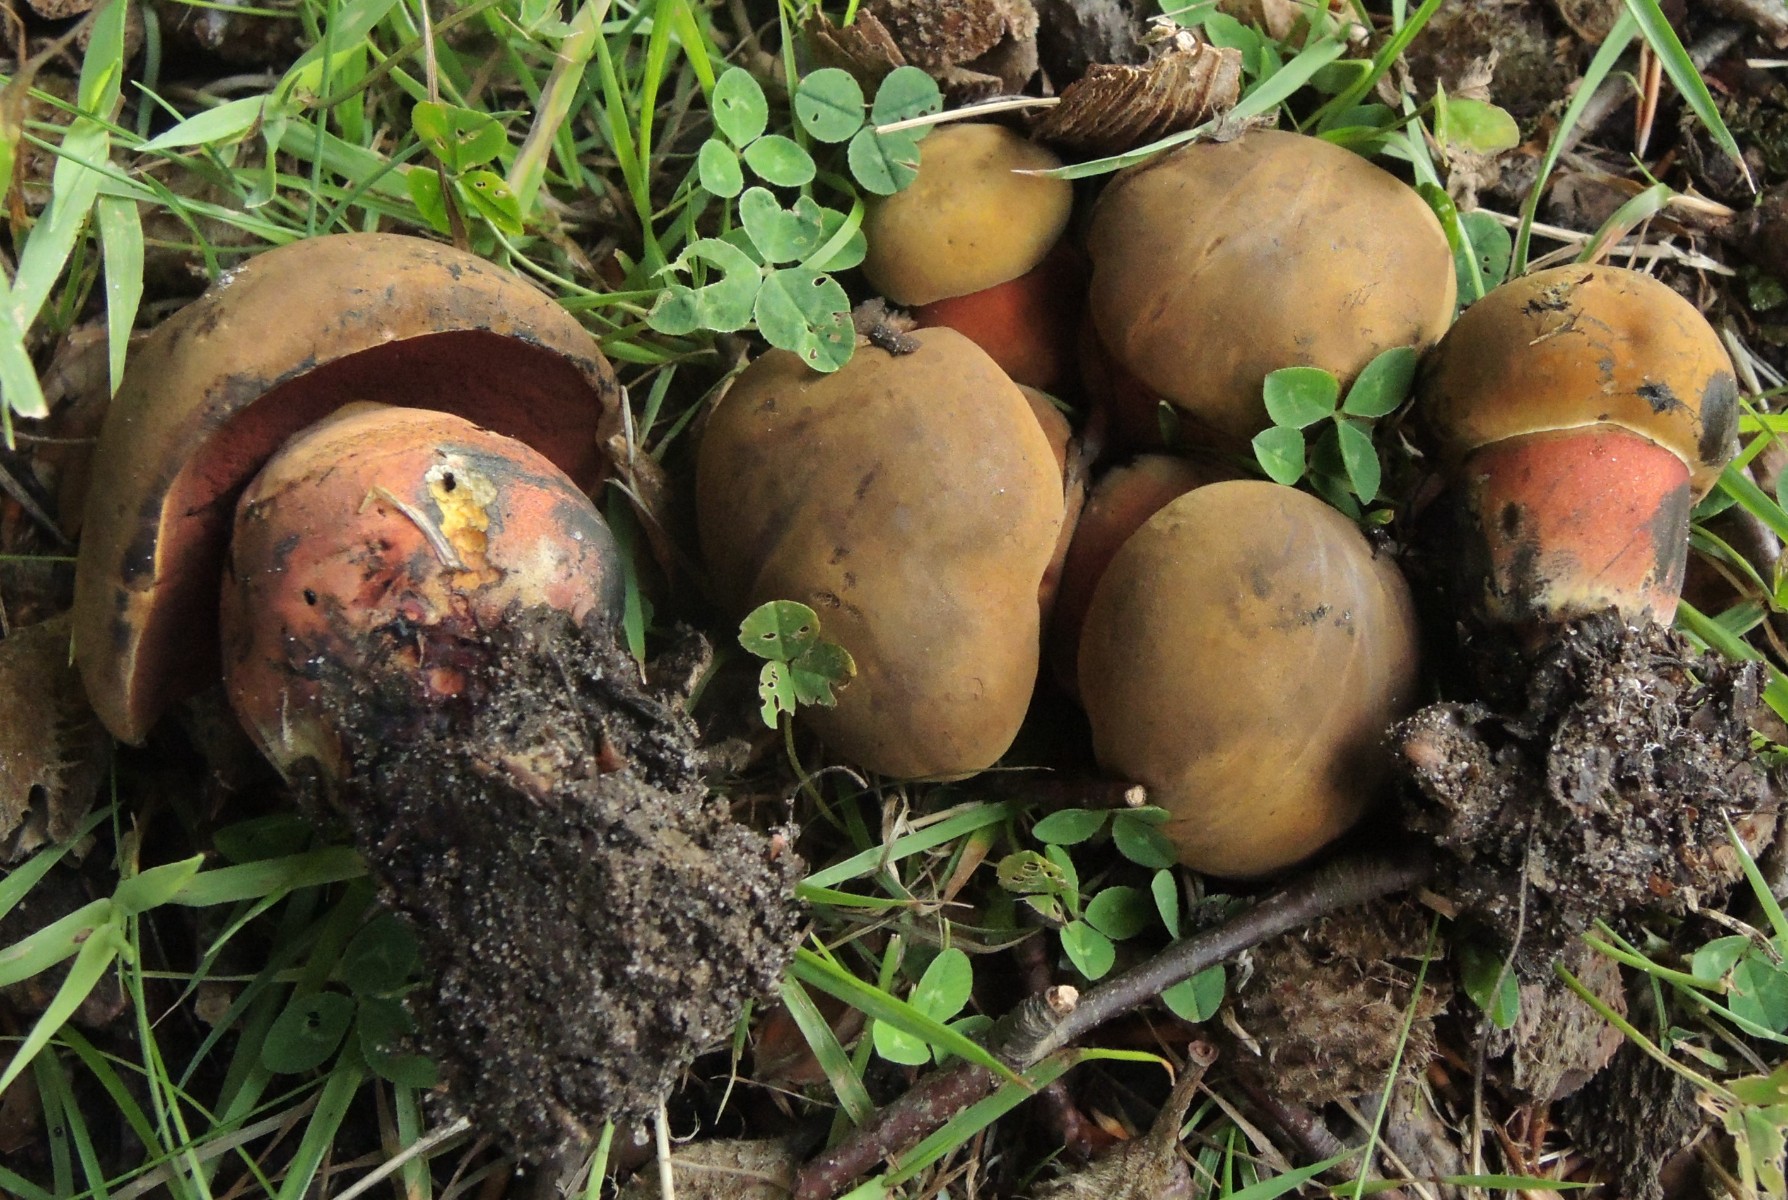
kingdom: Fungi
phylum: Basidiomycota
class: Agaricomycetes
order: Boletales
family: Boletaceae
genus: Neoboletus
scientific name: Neoboletus xanthopus
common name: finprikket indigorørhat
